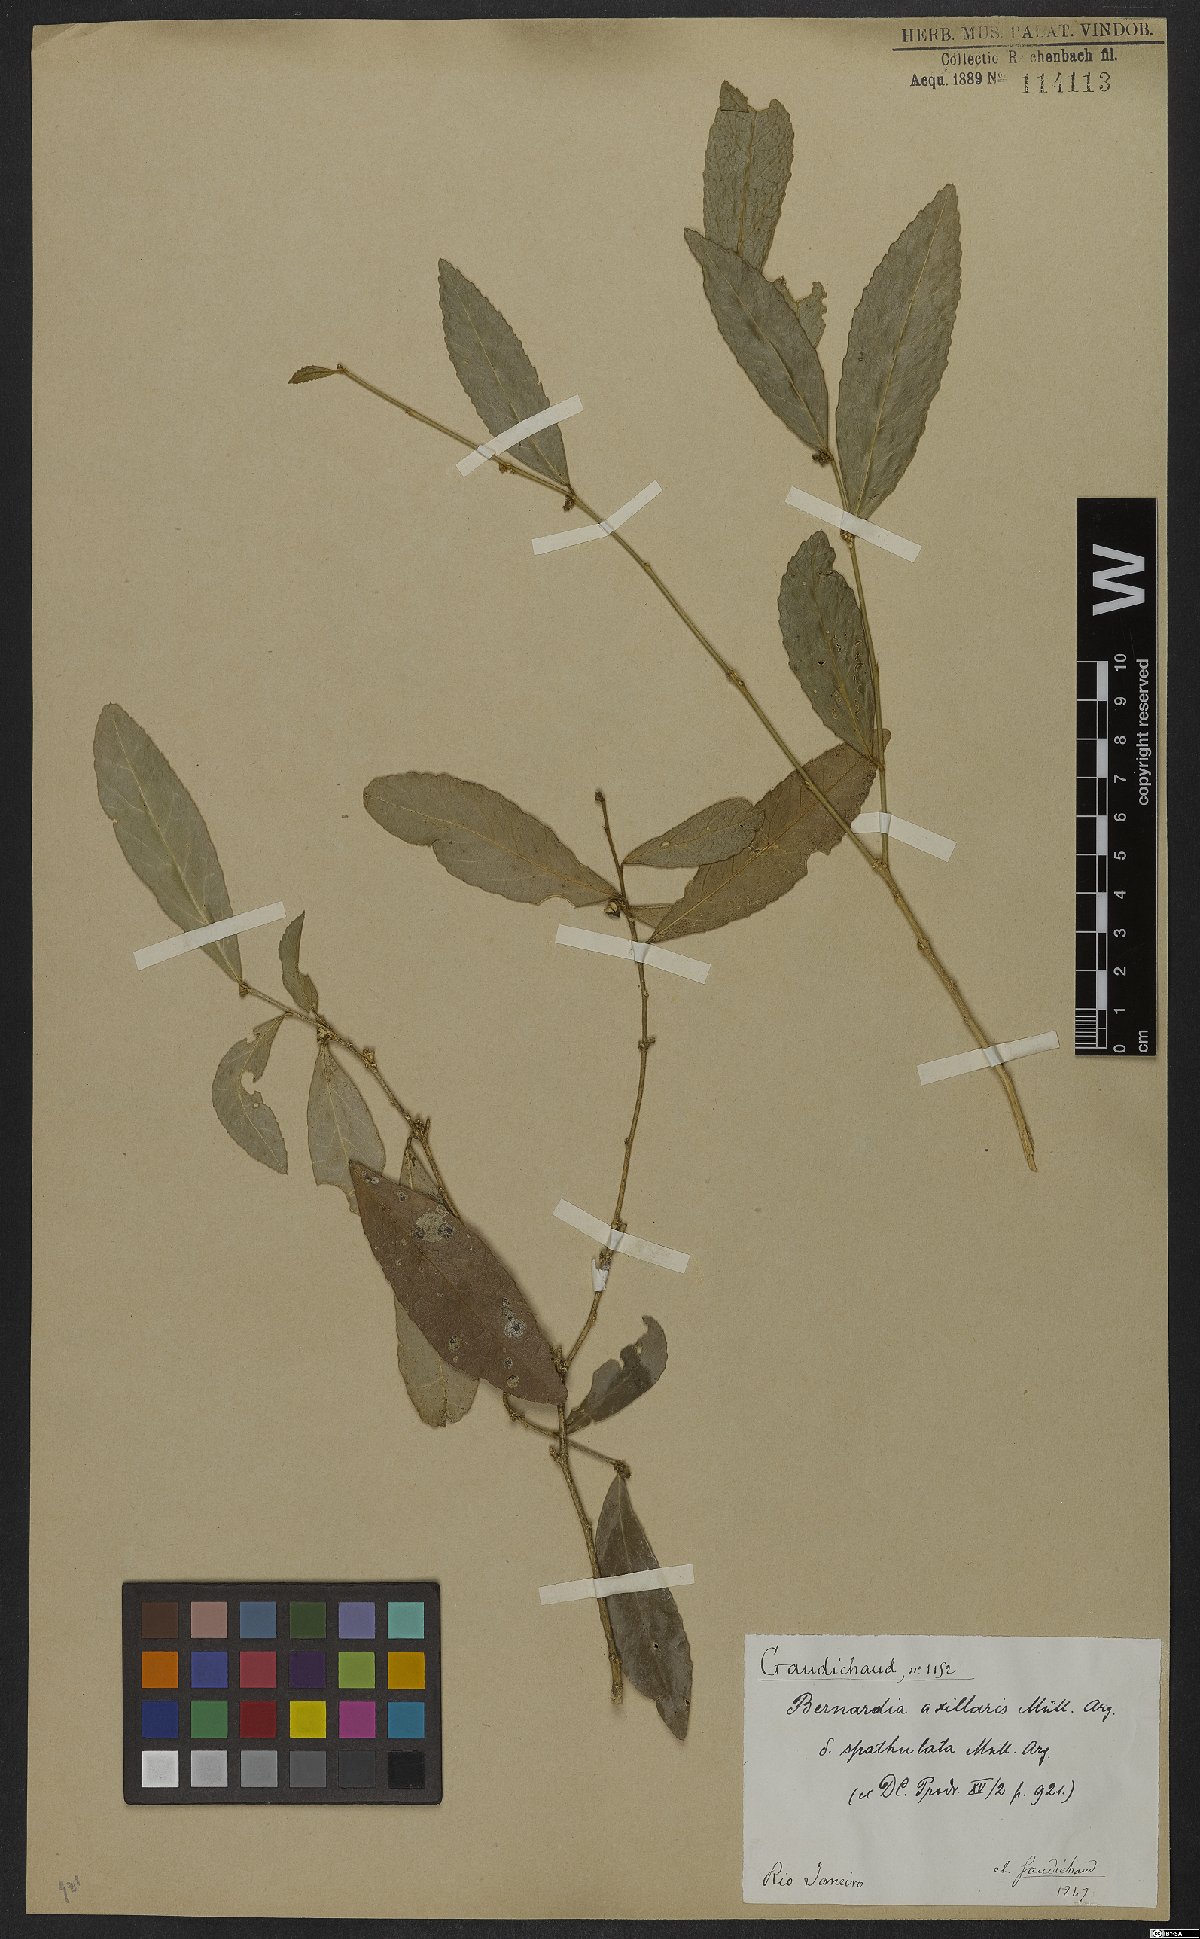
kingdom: Plantae
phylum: Tracheophyta
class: Magnoliopsida
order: Malpighiales
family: Euphorbiaceae
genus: Bernardia
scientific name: Bernardia axillaris
